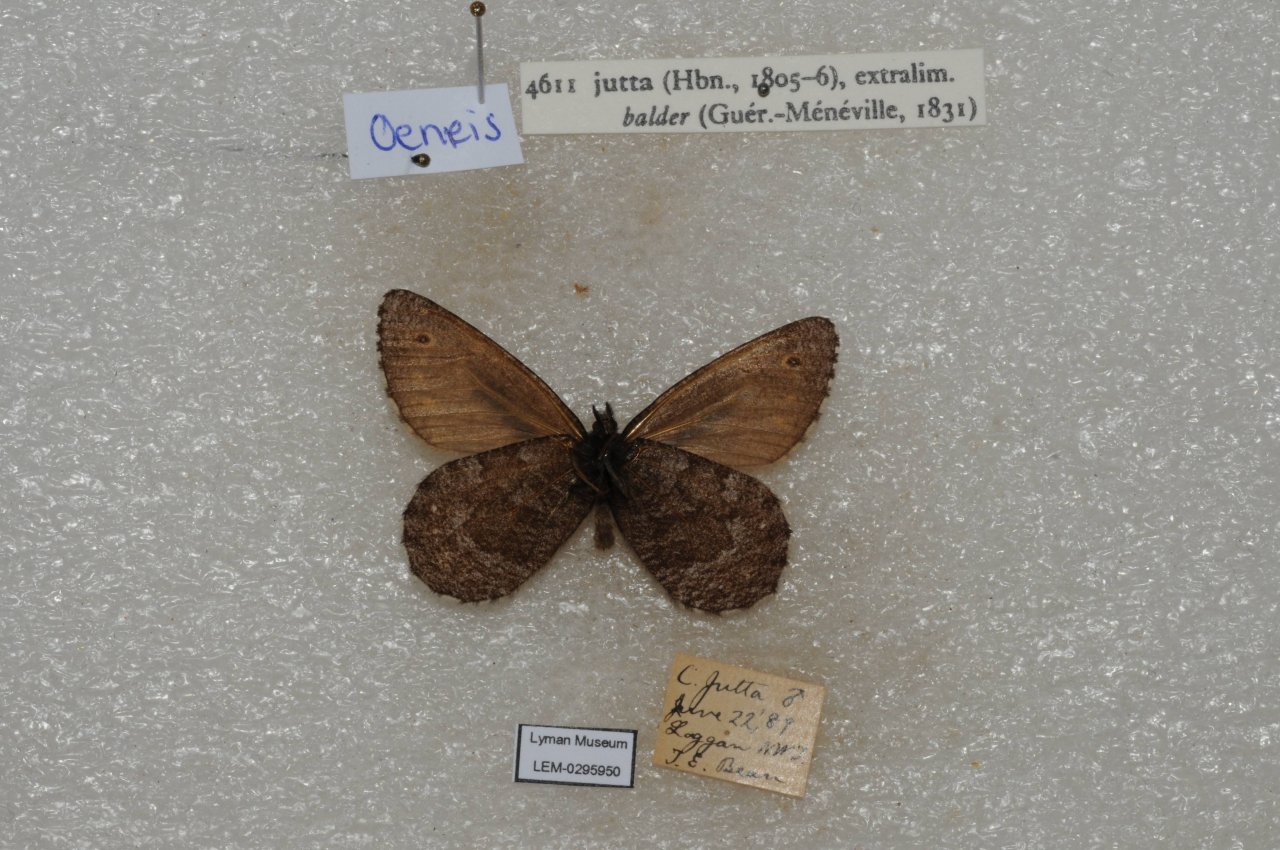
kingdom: Animalia
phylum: Arthropoda
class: Insecta
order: Lepidoptera
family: Nymphalidae
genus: Oeneis
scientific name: Oeneis jutta
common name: Jutta Arctic
